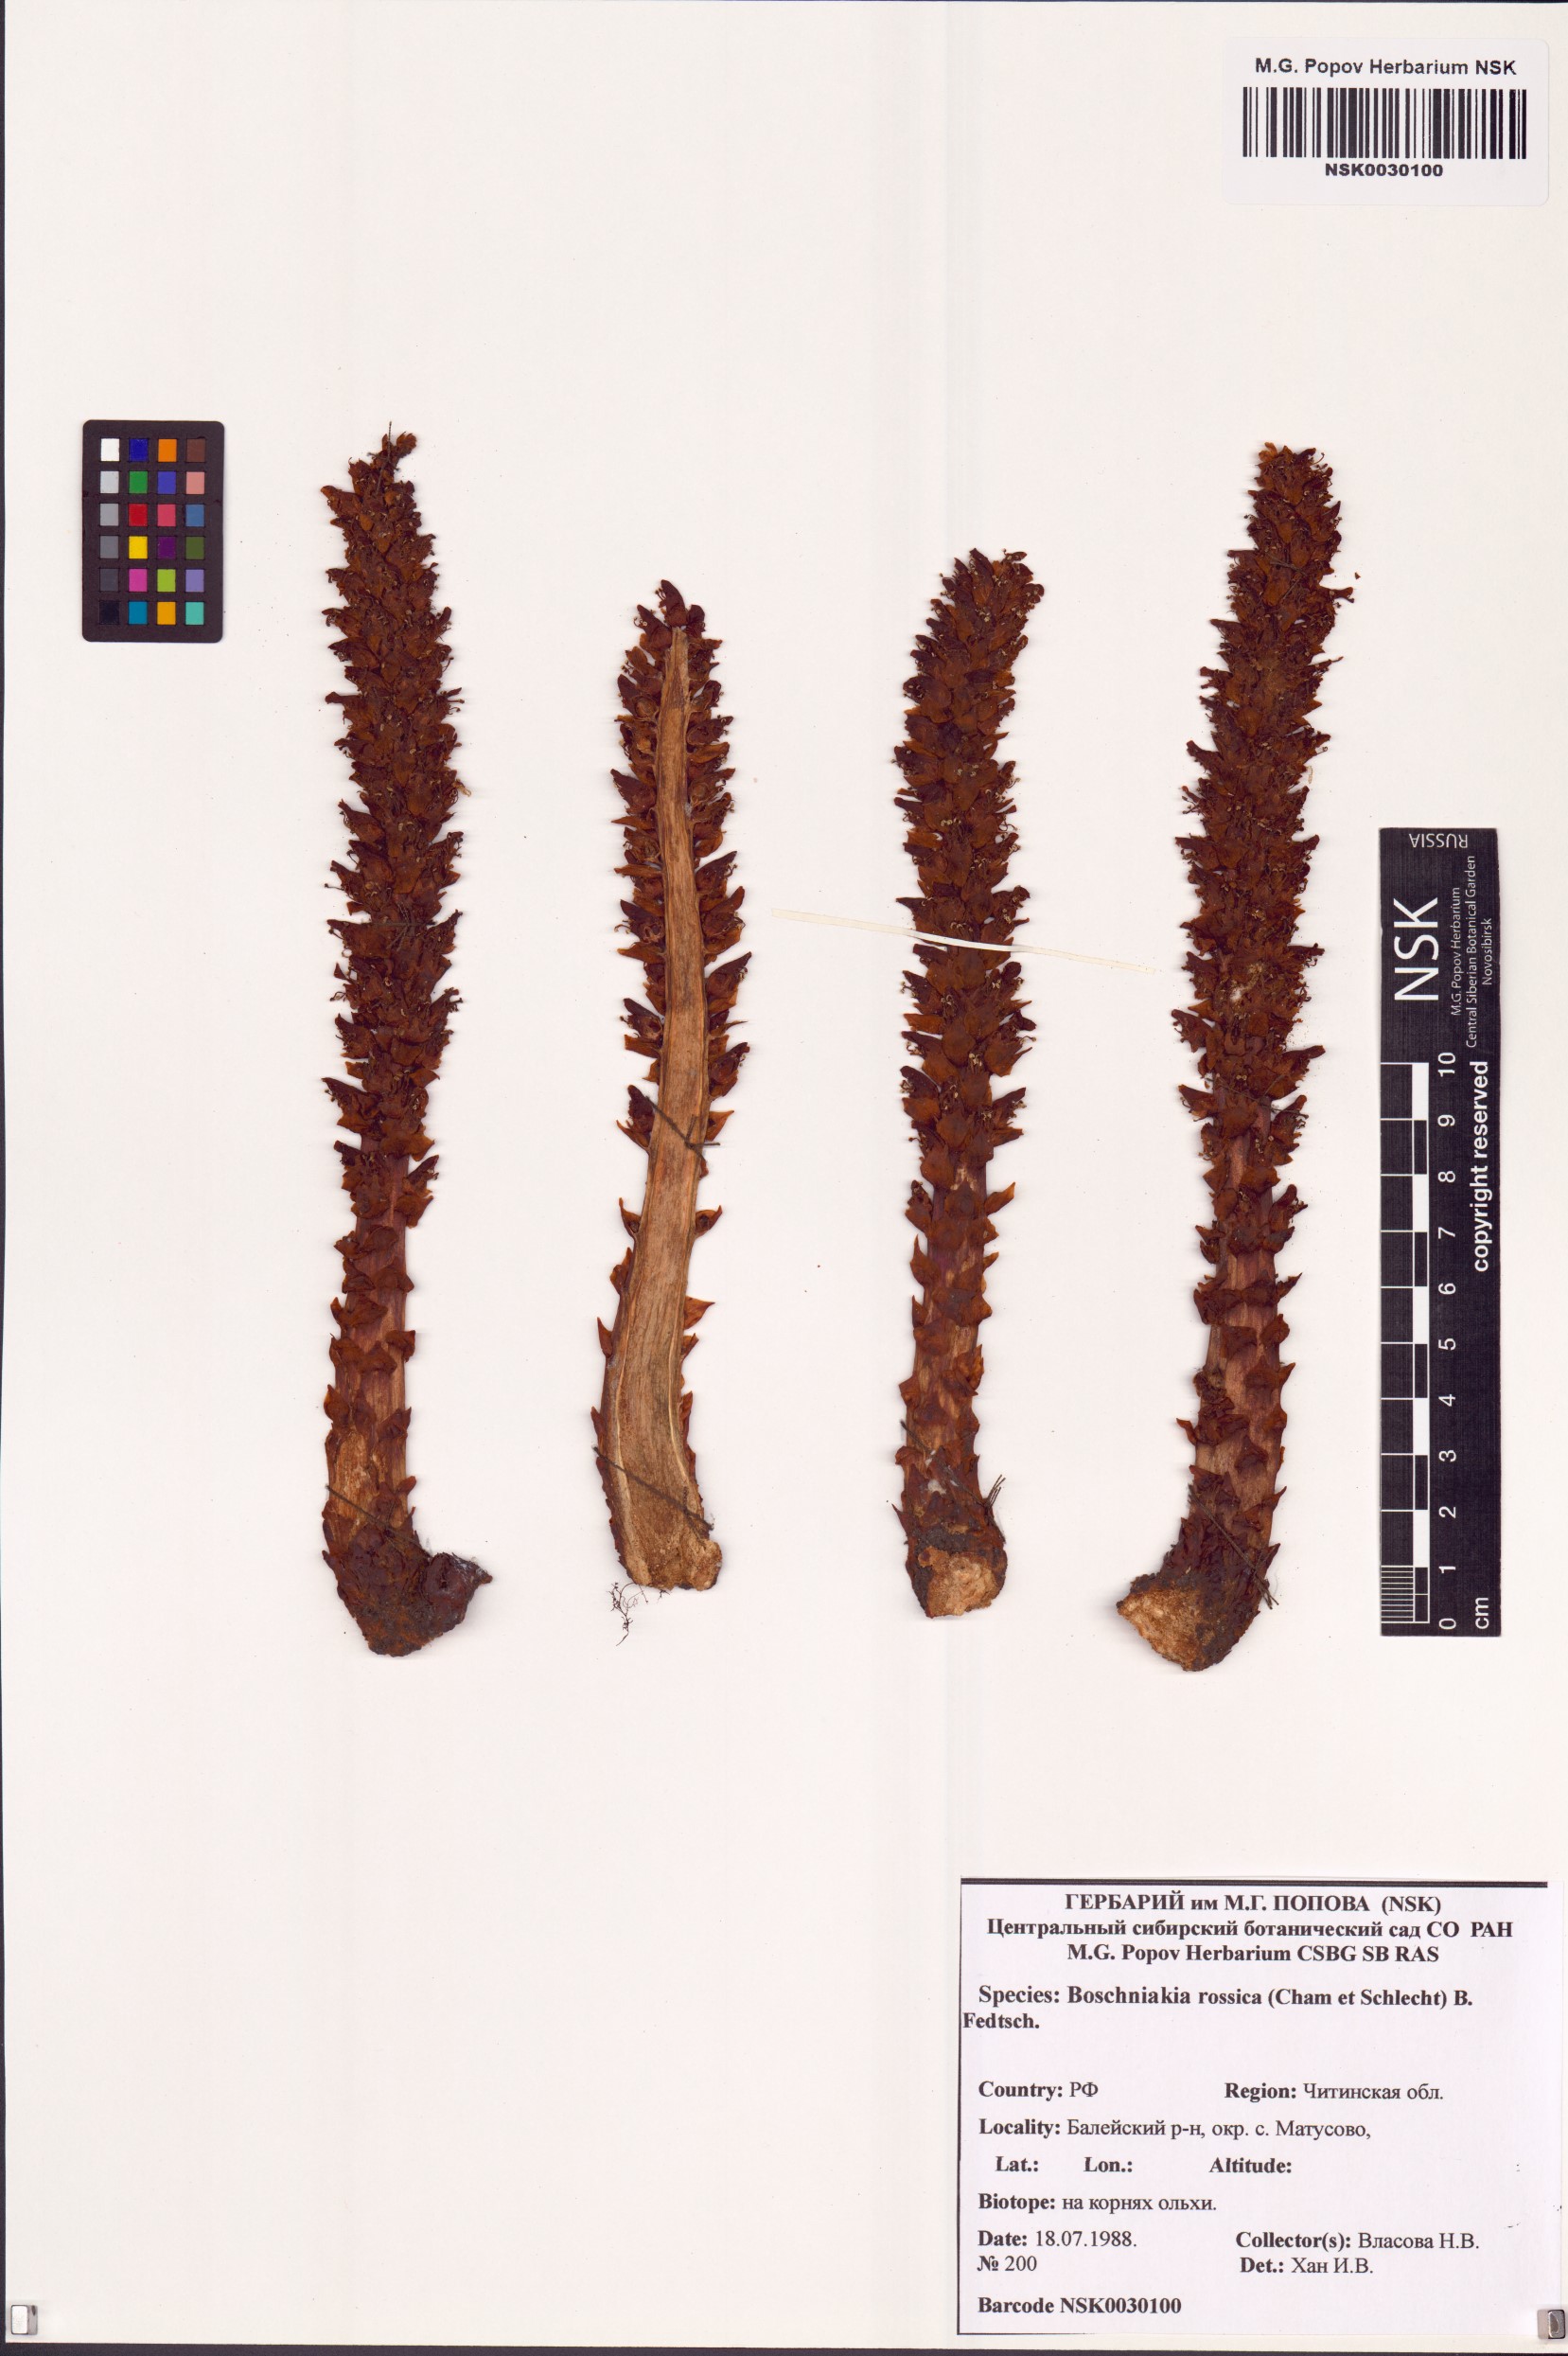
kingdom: Plantae
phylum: Tracheophyta
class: Magnoliopsida
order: Lamiales
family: Orobanchaceae
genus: Boschniakia
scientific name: Boschniakia rossica
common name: Poque
